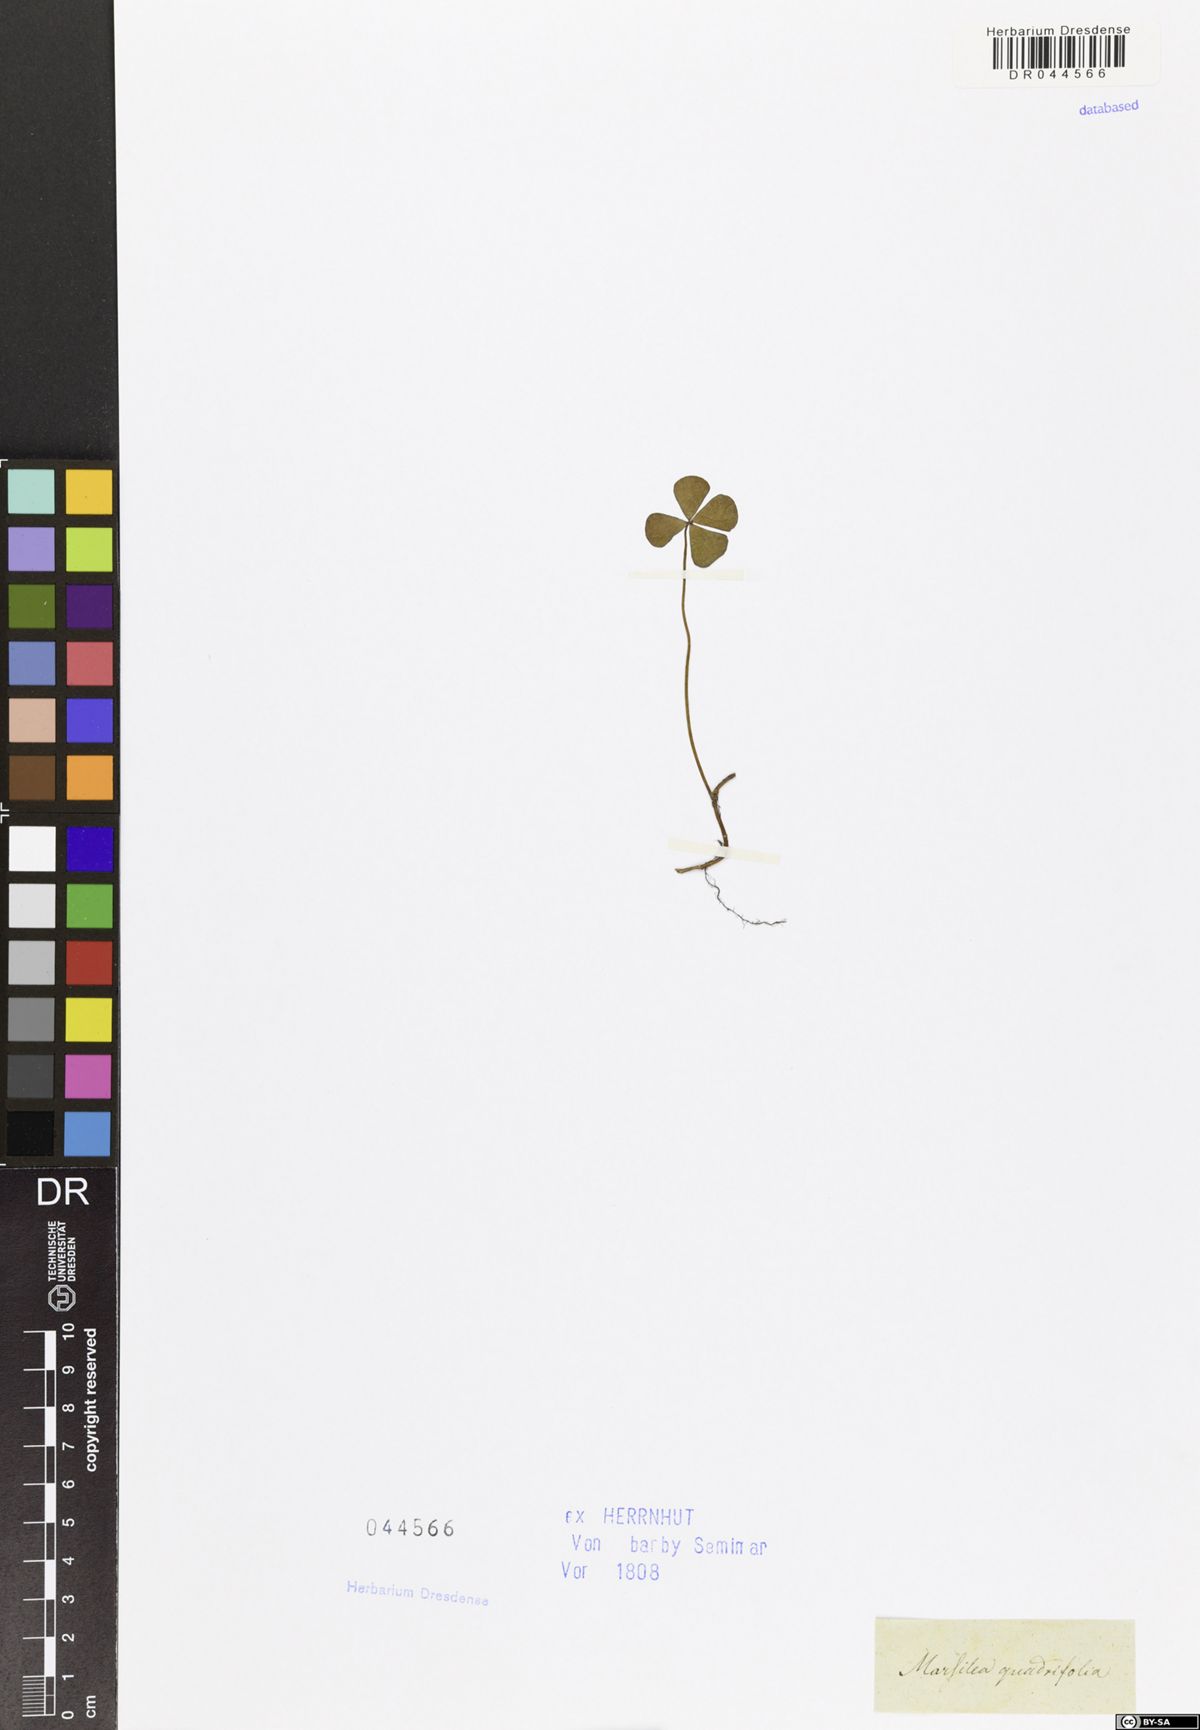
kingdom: Plantae
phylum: Tracheophyta
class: Polypodiopsida
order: Salviniales
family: Marsileaceae
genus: Marsilea
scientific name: Marsilea quadrifolia
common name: Water shamrock
